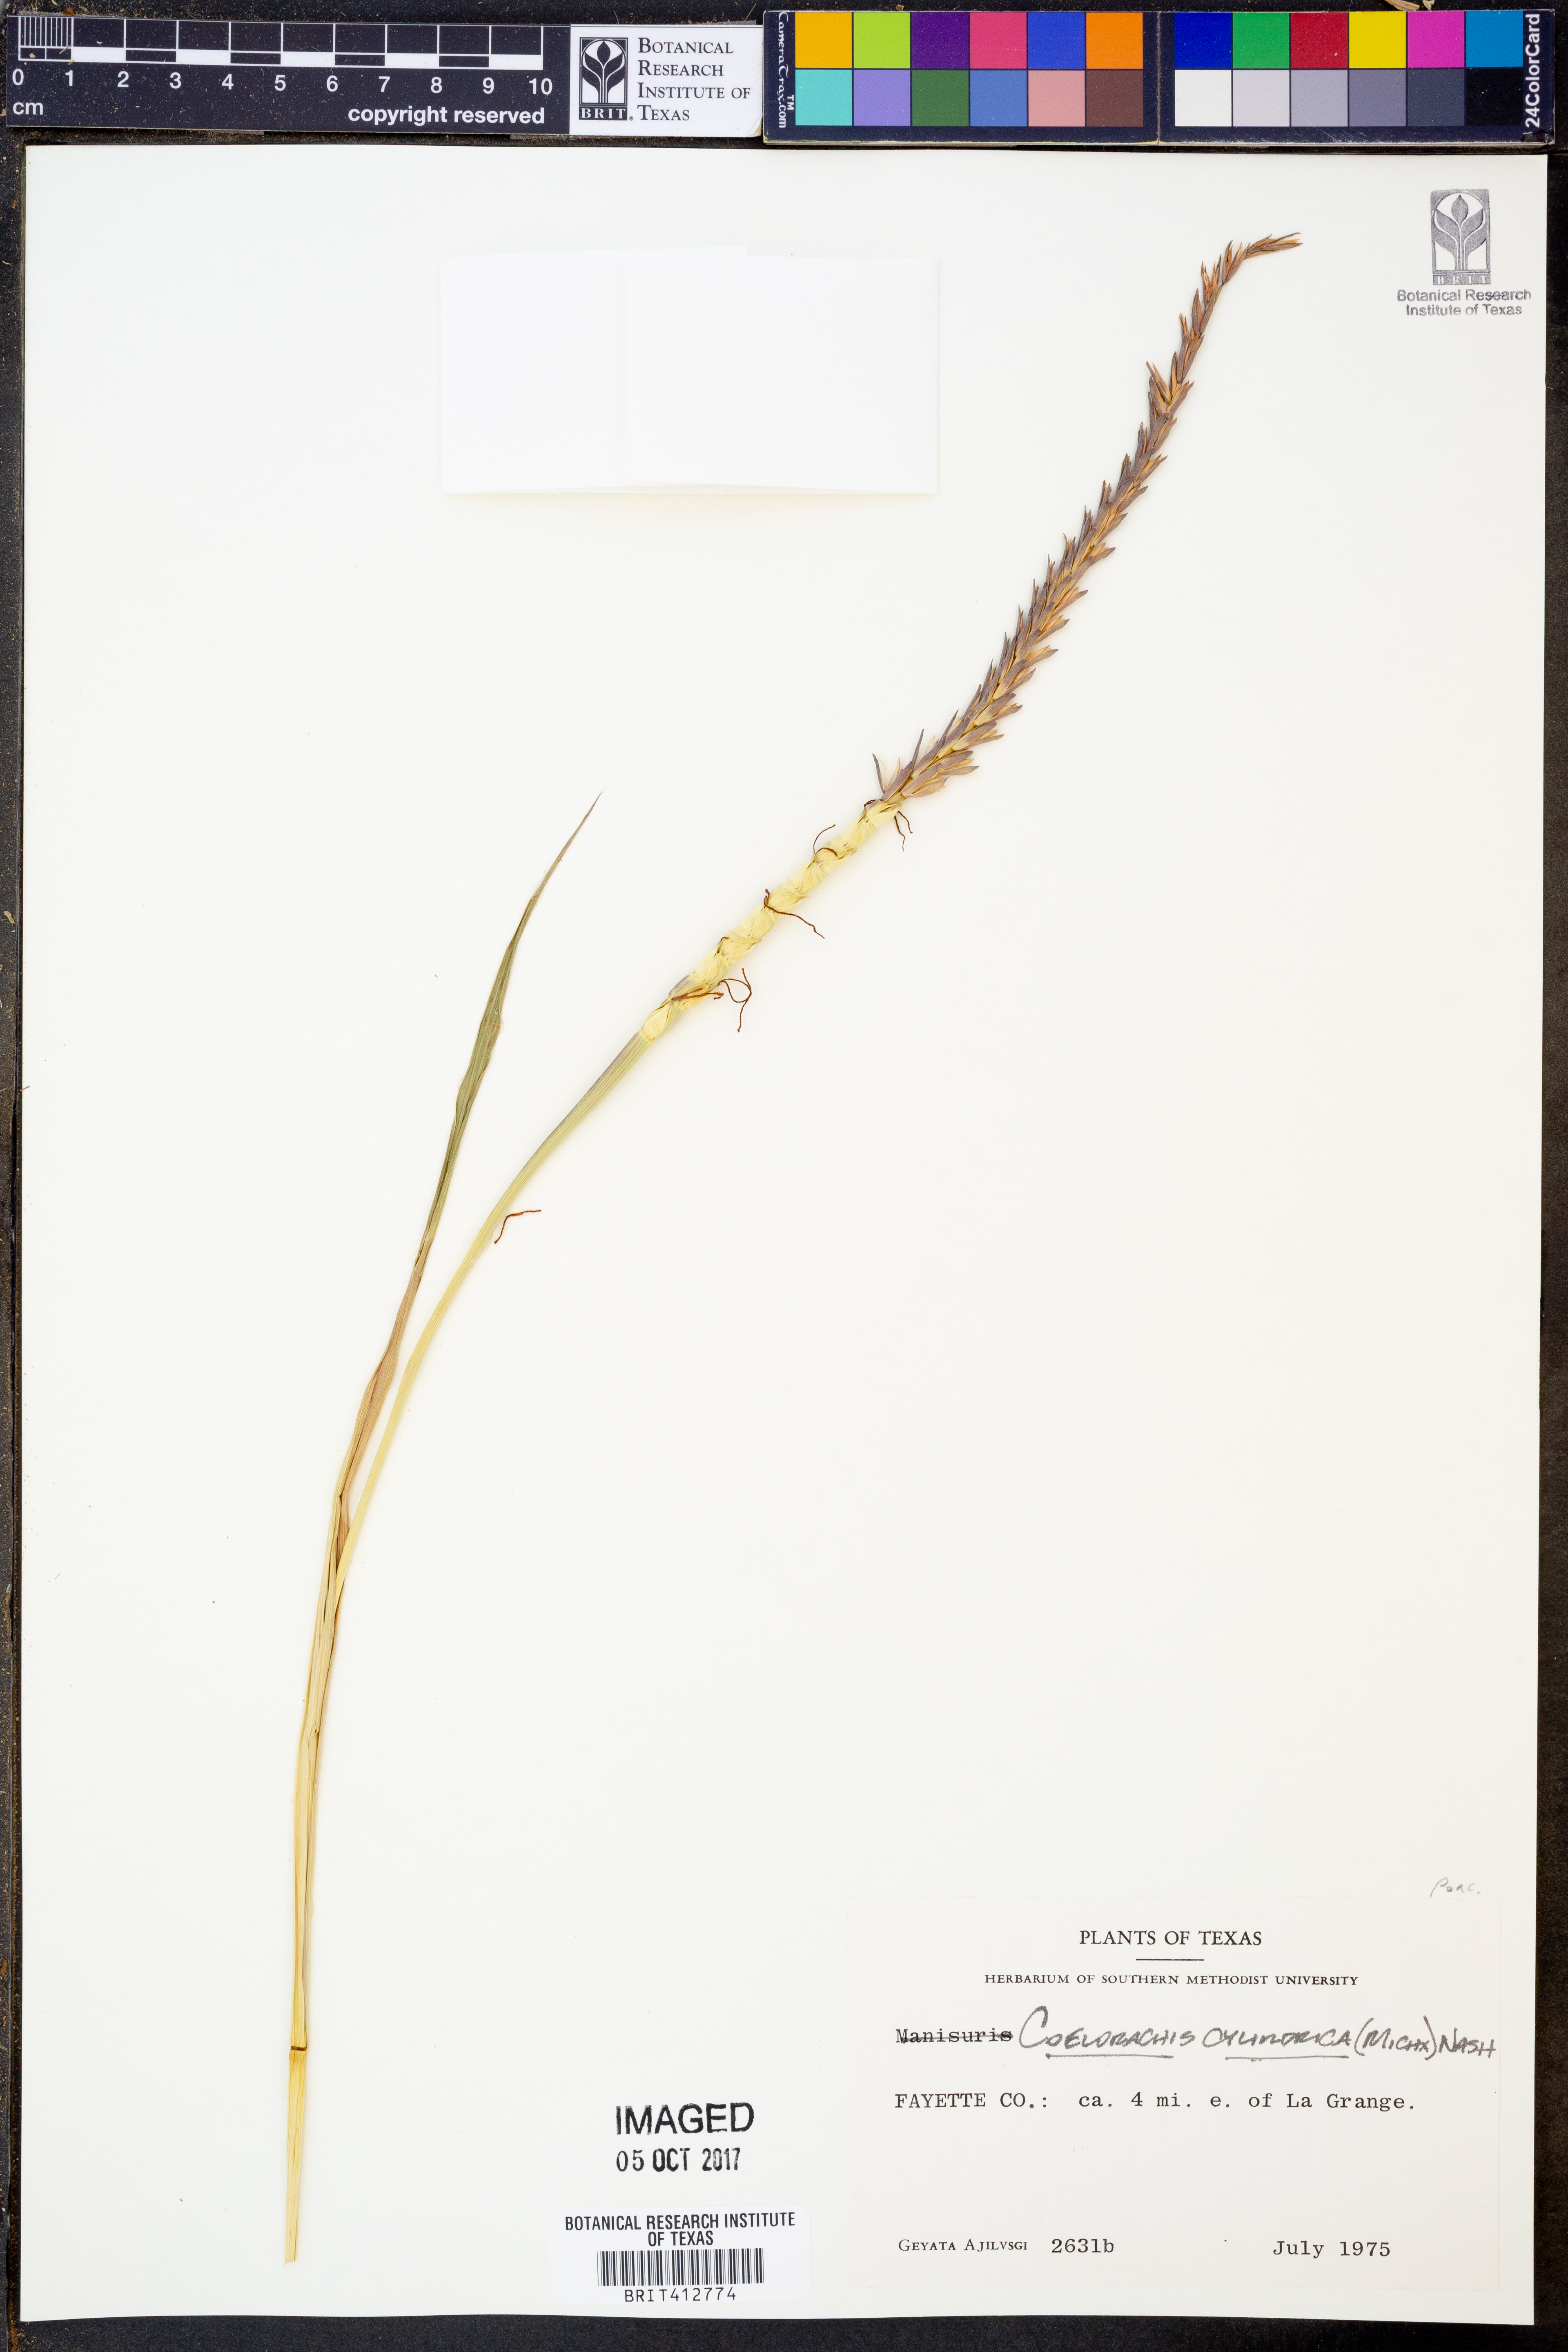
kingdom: Plantae
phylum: Tracheophyta
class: Liliopsida
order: Poales
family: Poaceae
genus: Rottboellia
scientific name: Rottboellia campestris
